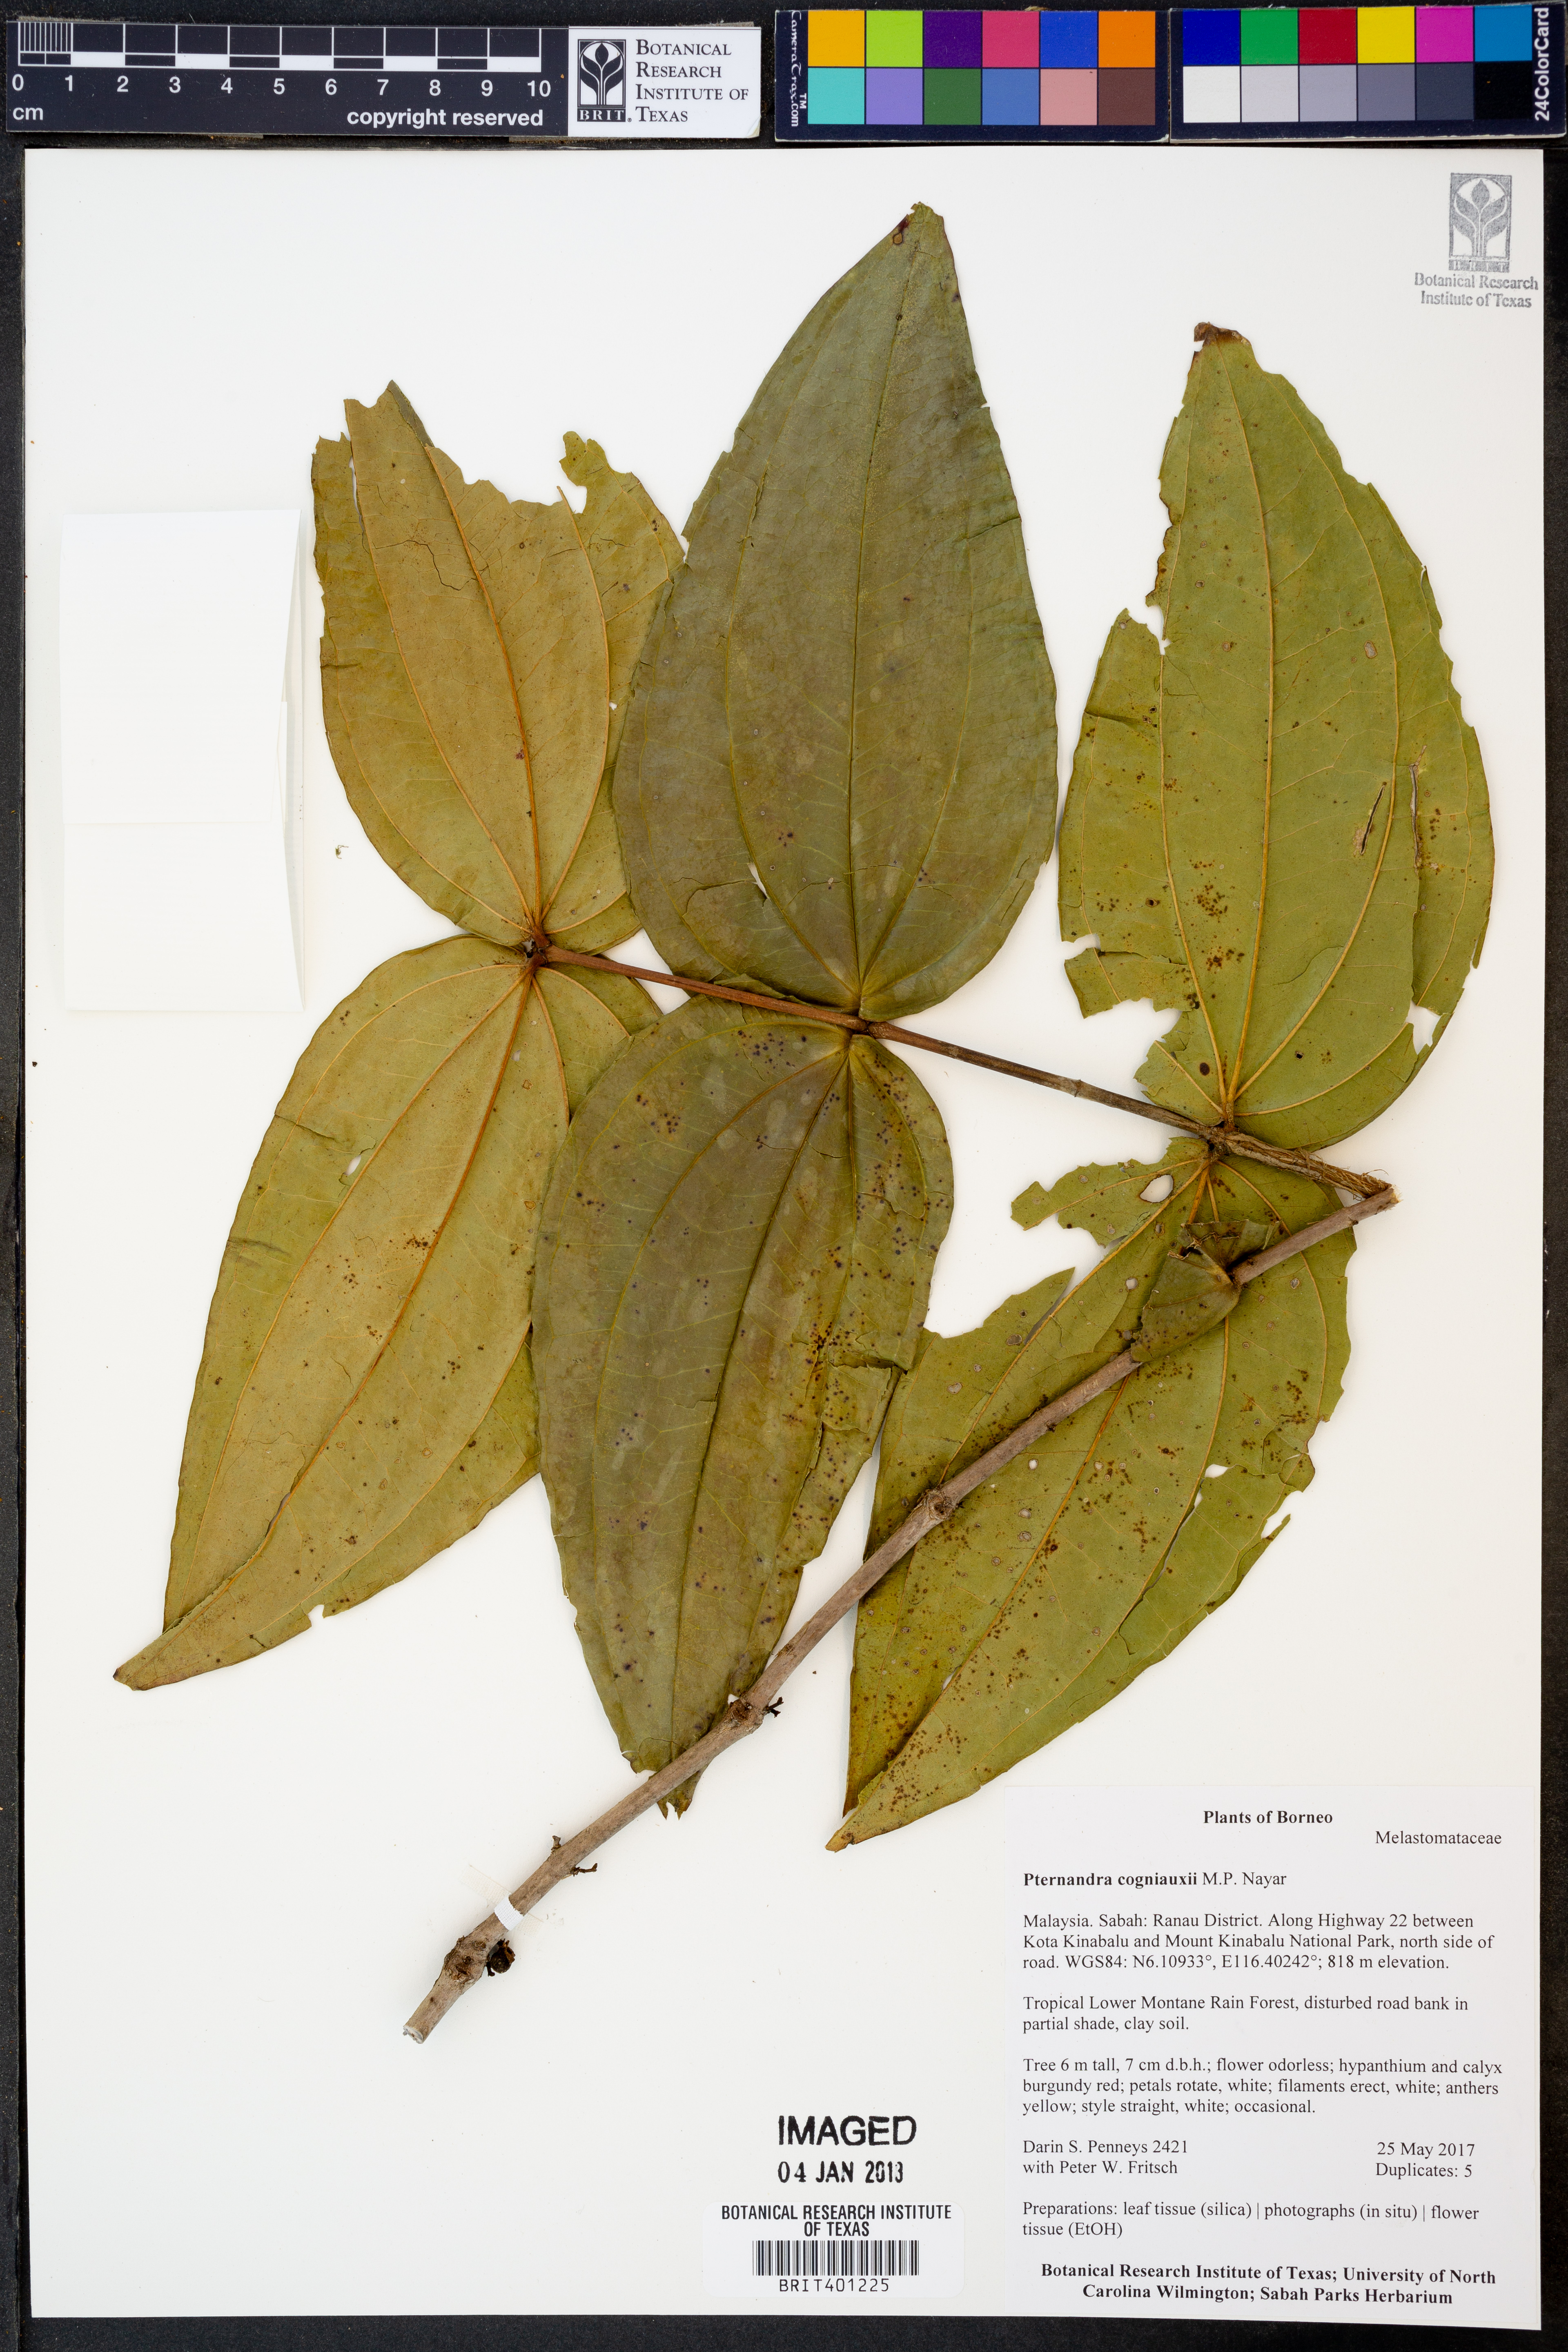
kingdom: Plantae
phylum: Tracheophyta
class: Magnoliopsida
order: Myrtales
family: Melastomataceae
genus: Pternandra
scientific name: Pternandra cogniauxii
